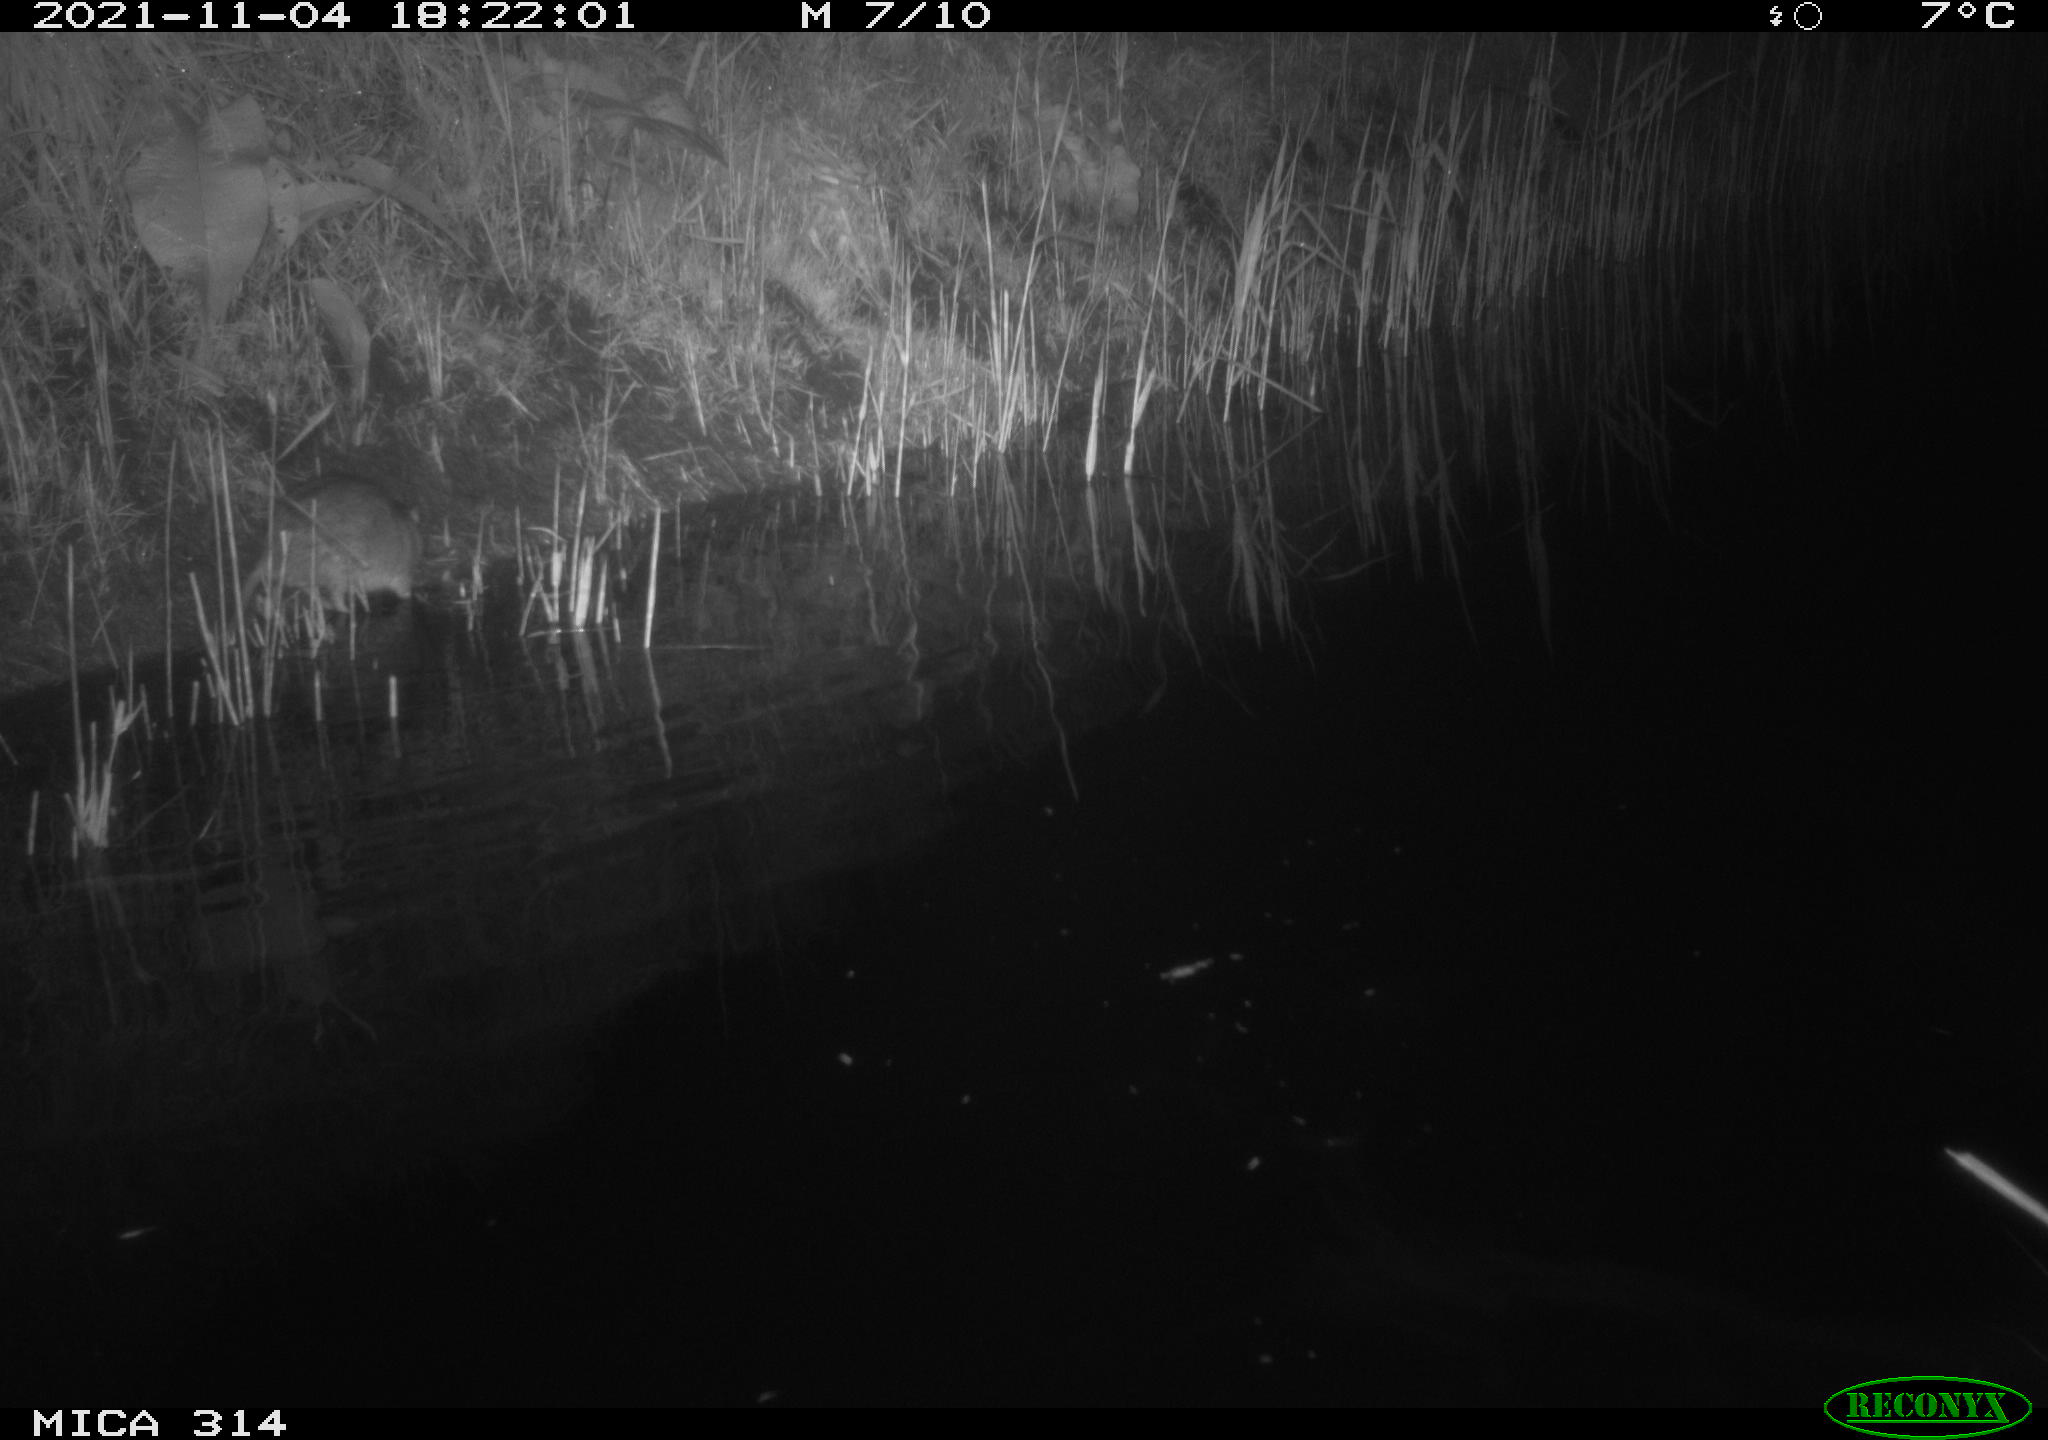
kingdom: Animalia
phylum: Chordata
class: Mammalia
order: Rodentia
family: Muridae
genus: Rattus
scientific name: Rattus norvegicus
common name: Brown rat
